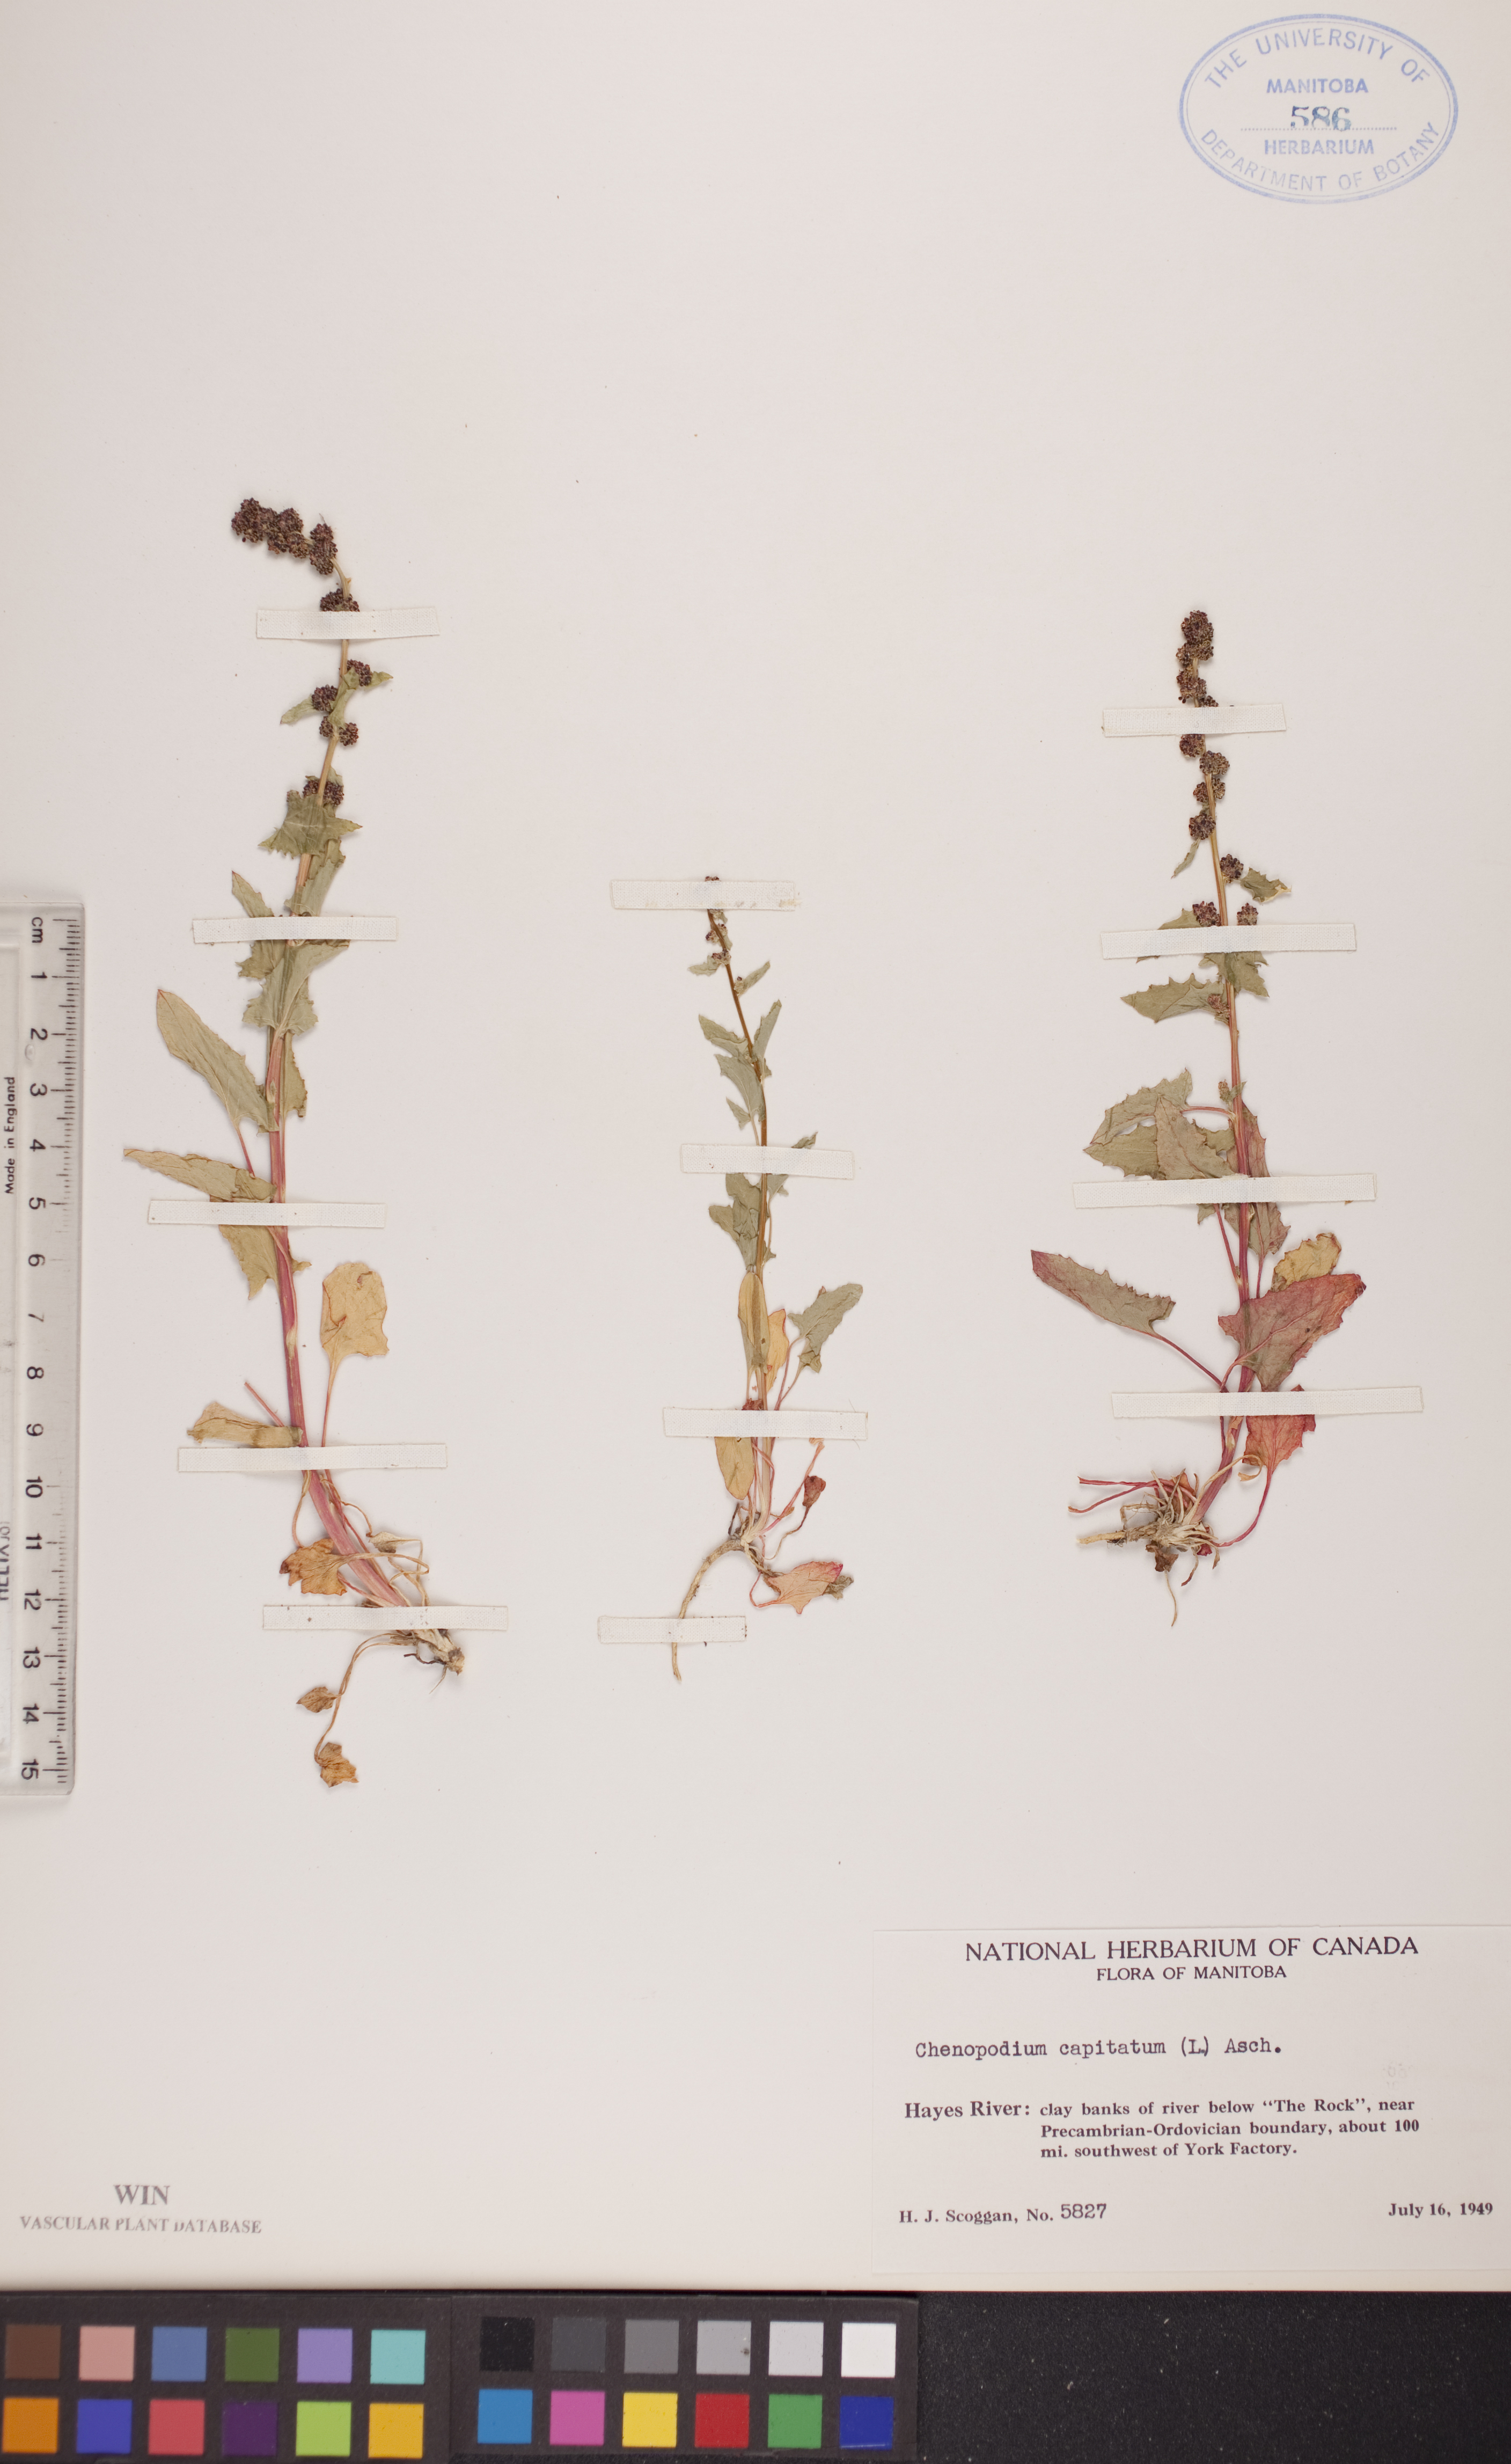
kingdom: Plantae
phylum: Tracheophyta
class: Magnoliopsida
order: Caryophyllales
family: Amaranthaceae
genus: Blitum
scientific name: Blitum capitatum
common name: Strawberry-blight
